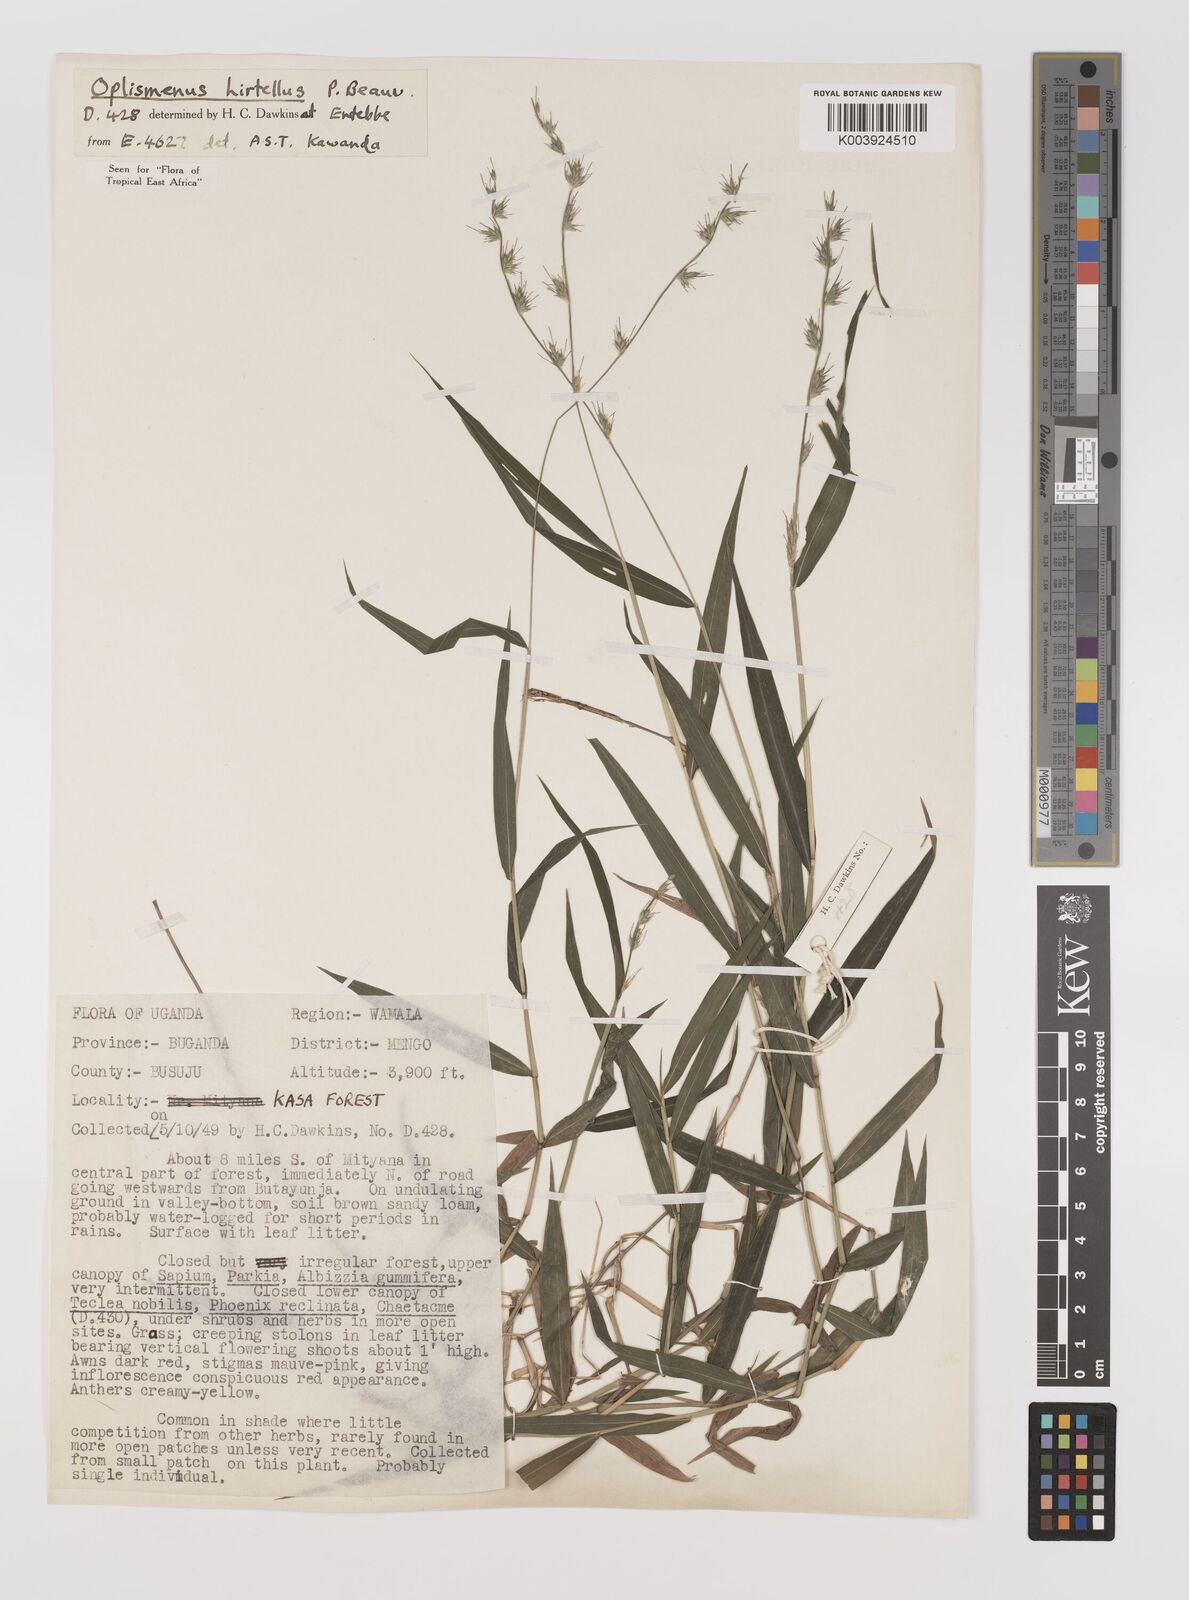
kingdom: Plantae
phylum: Tracheophyta
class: Liliopsida
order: Poales
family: Poaceae
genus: Oplismenus
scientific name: Oplismenus hirtellus
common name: Basketgrass
